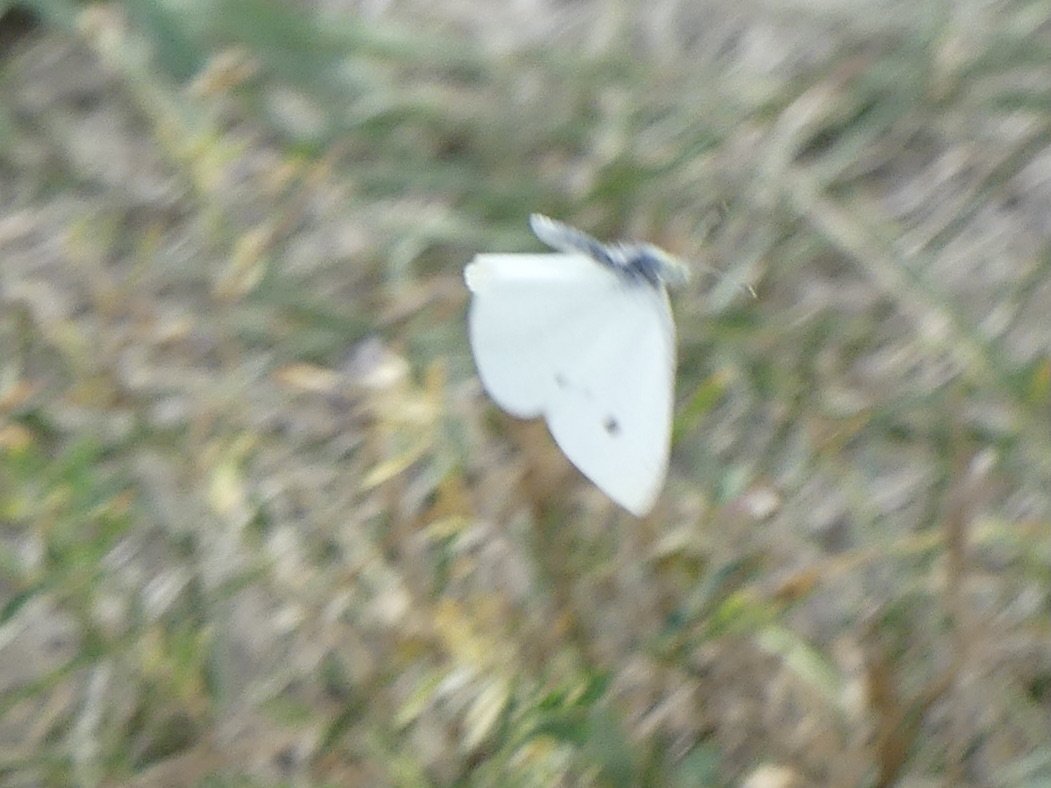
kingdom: Animalia
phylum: Arthropoda
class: Insecta
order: Lepidoptera
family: Pieridae
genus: Pieris
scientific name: Pieris rapae
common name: Cabbage White
